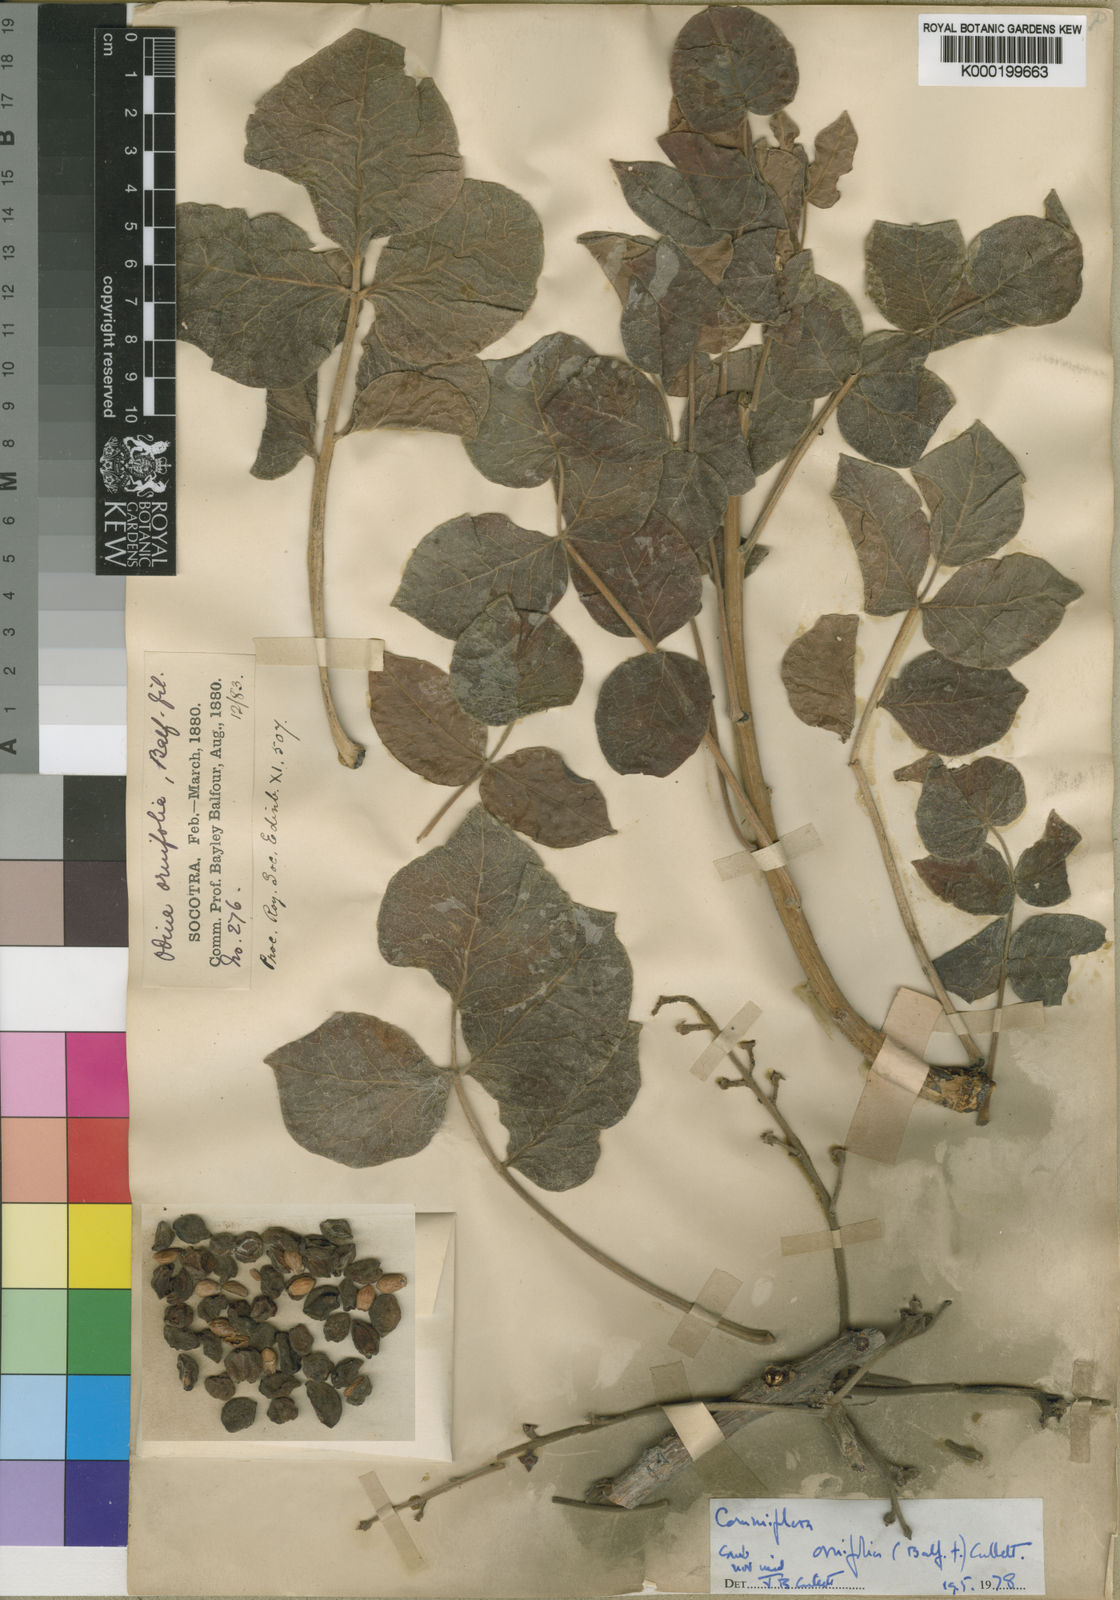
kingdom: Plantae
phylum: Tracheophyta
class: Magnoliopsida
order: Sapindales
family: Burseraceae
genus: Commiphora
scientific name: Commiphora ornifolia
